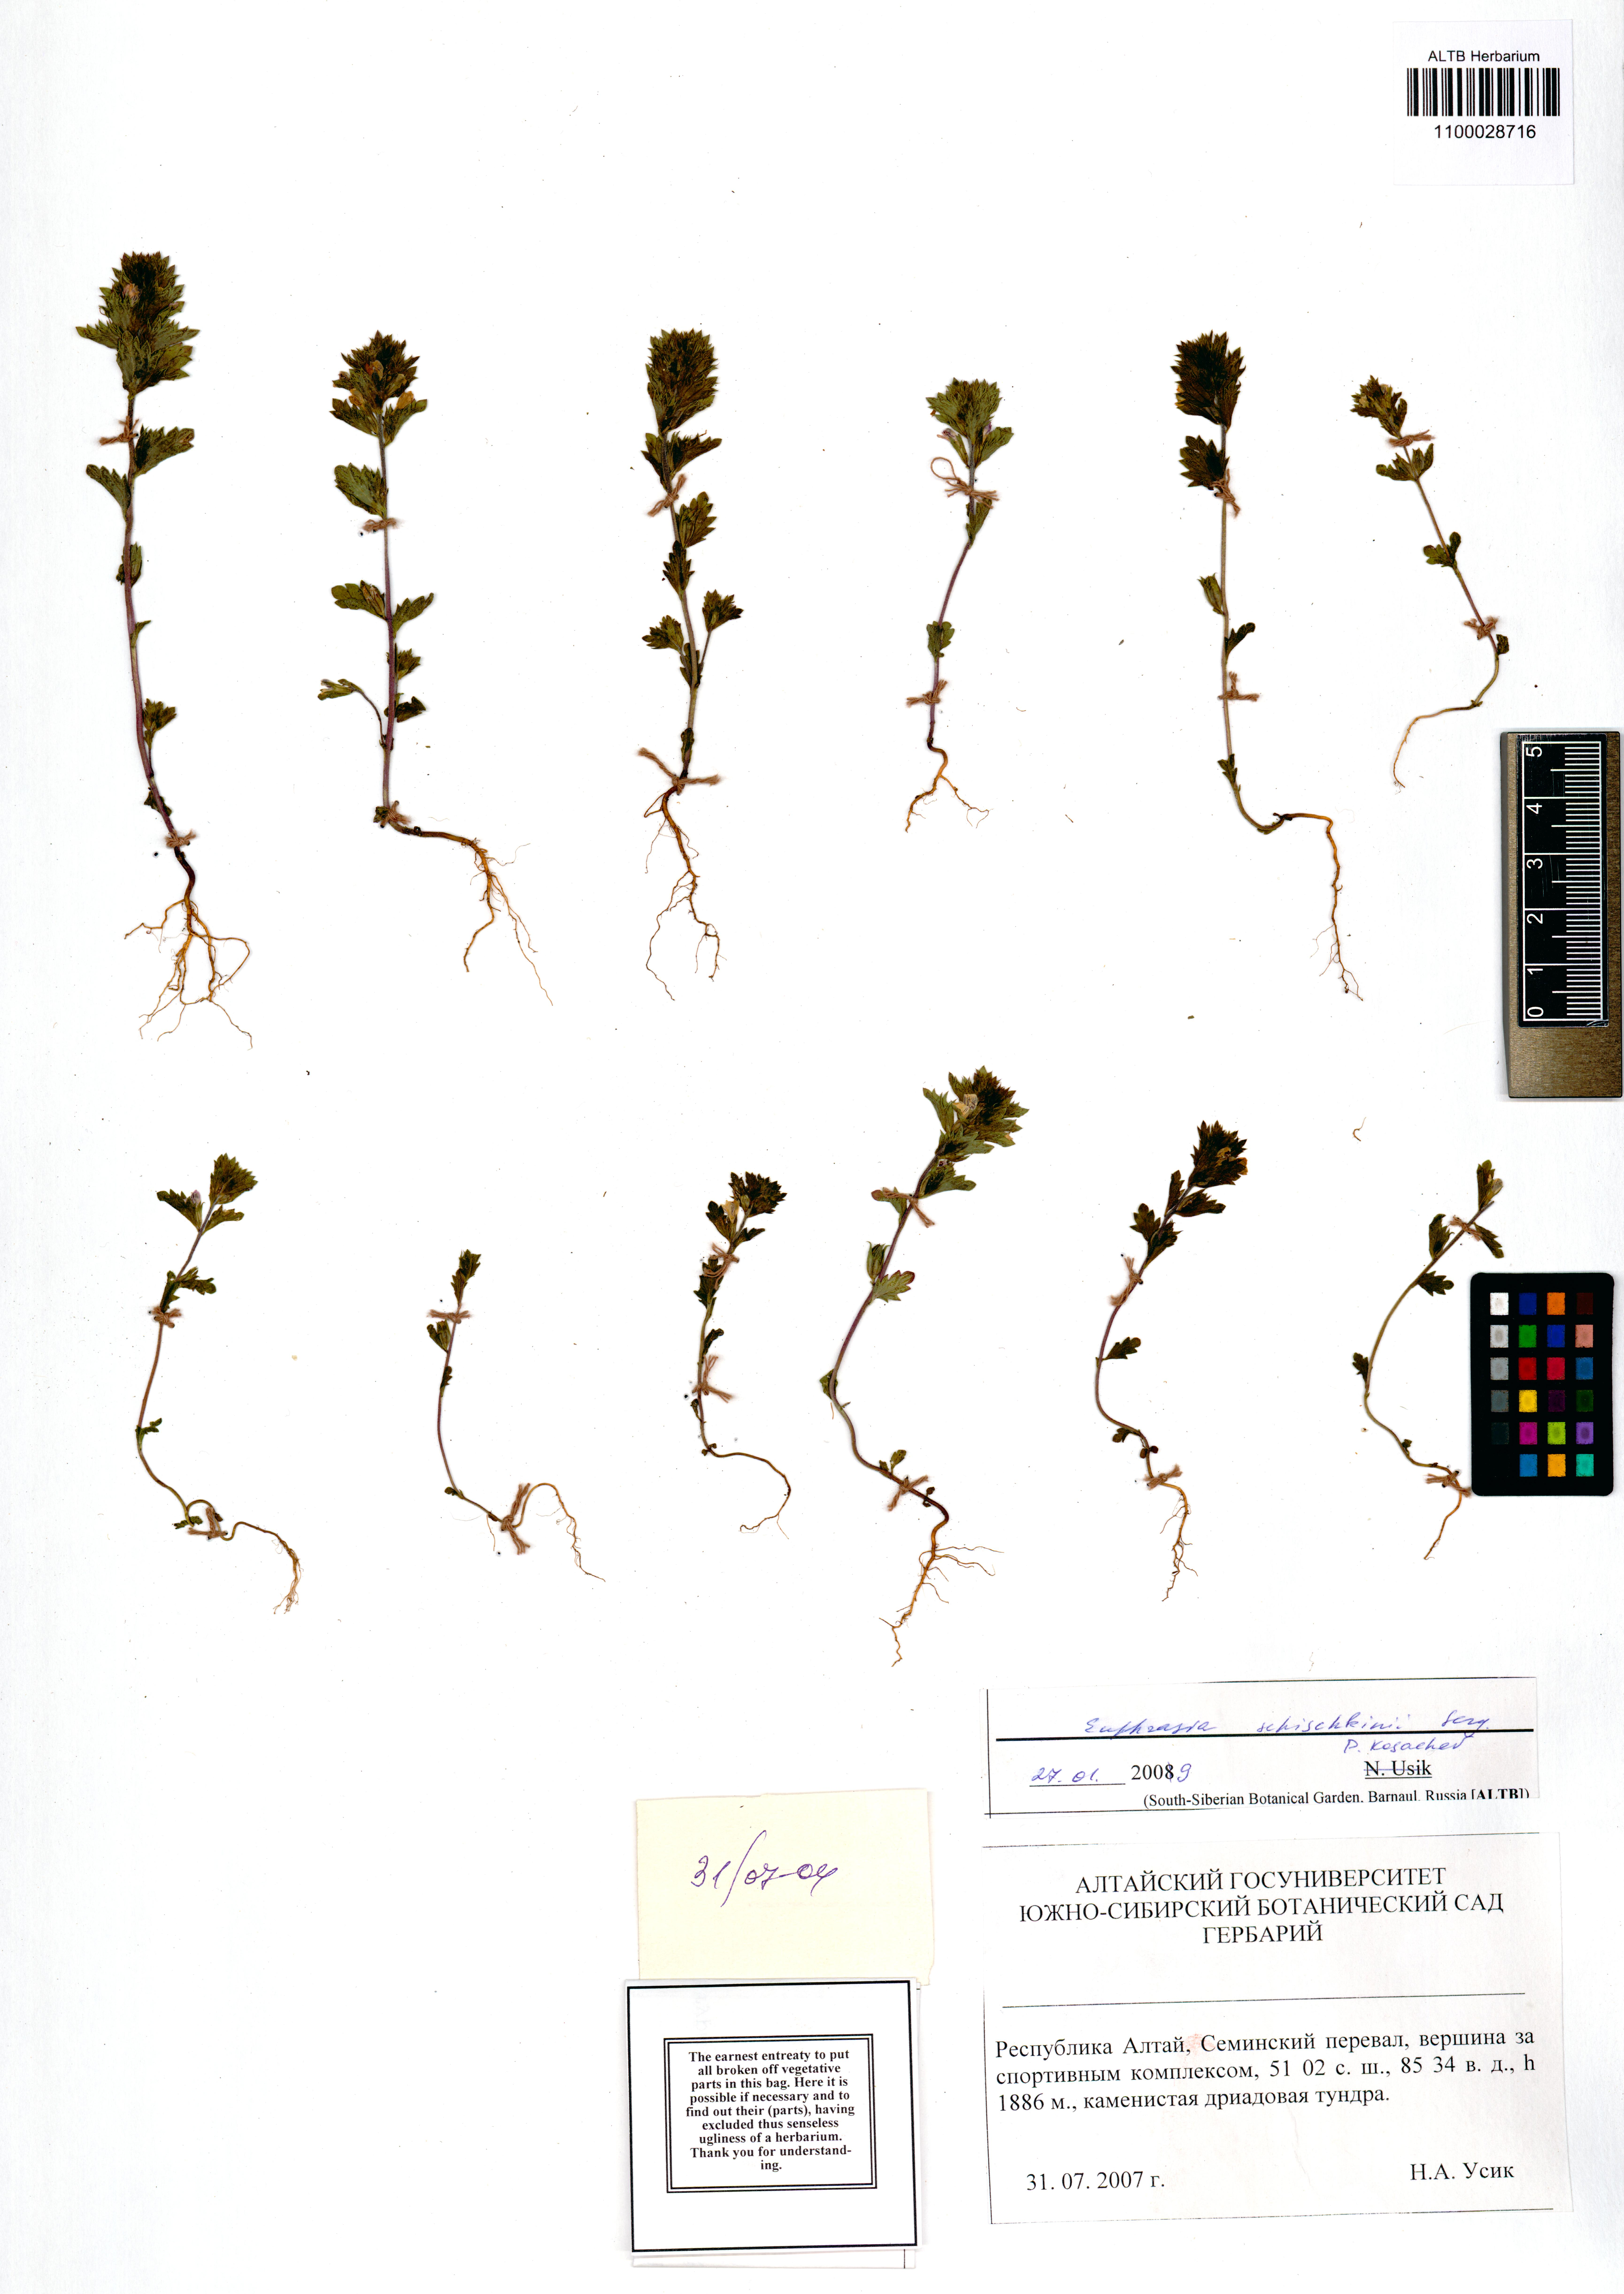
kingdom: Plantae
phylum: Tracheophyta
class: Magnoliopsida
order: Lamiales
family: Orobanchaceae
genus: Euphrasia
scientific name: Euphrasia schischkinii
